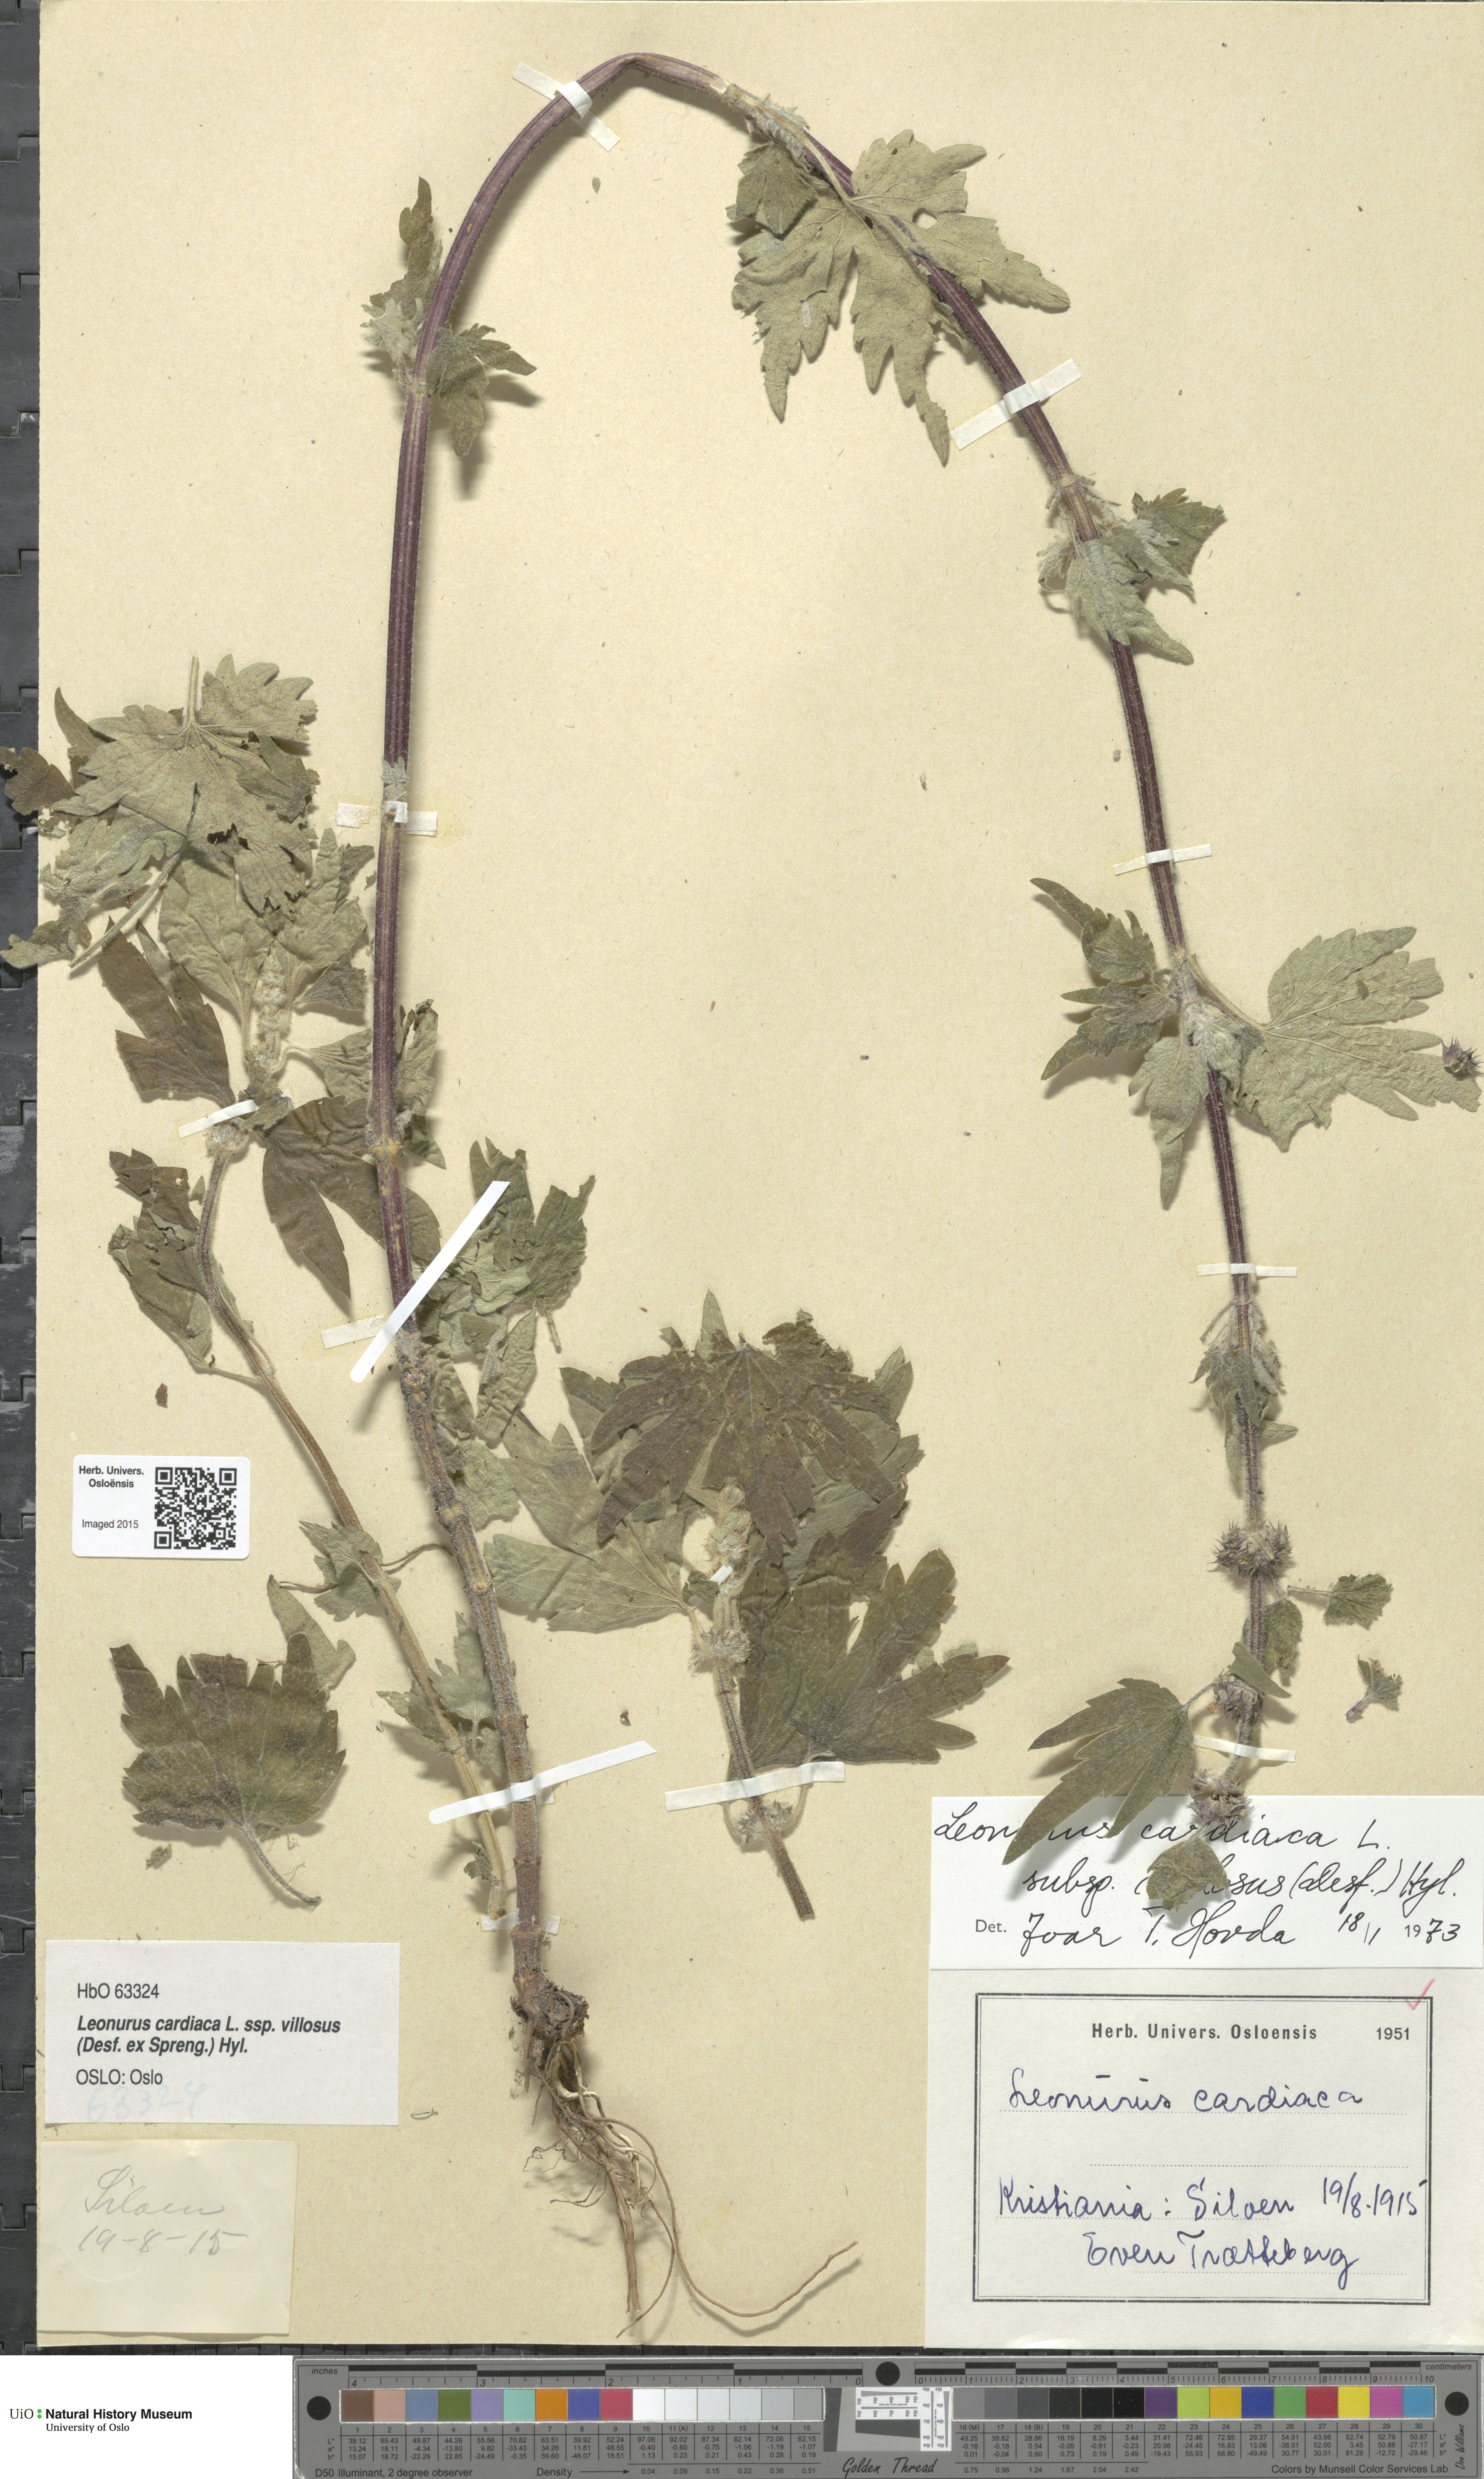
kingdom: Plantae
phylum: Tracheophyta
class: Magnoliopsida
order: Lamiales
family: Lamiaceae
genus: Leonurus
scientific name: Leonurus quinquelobatus
